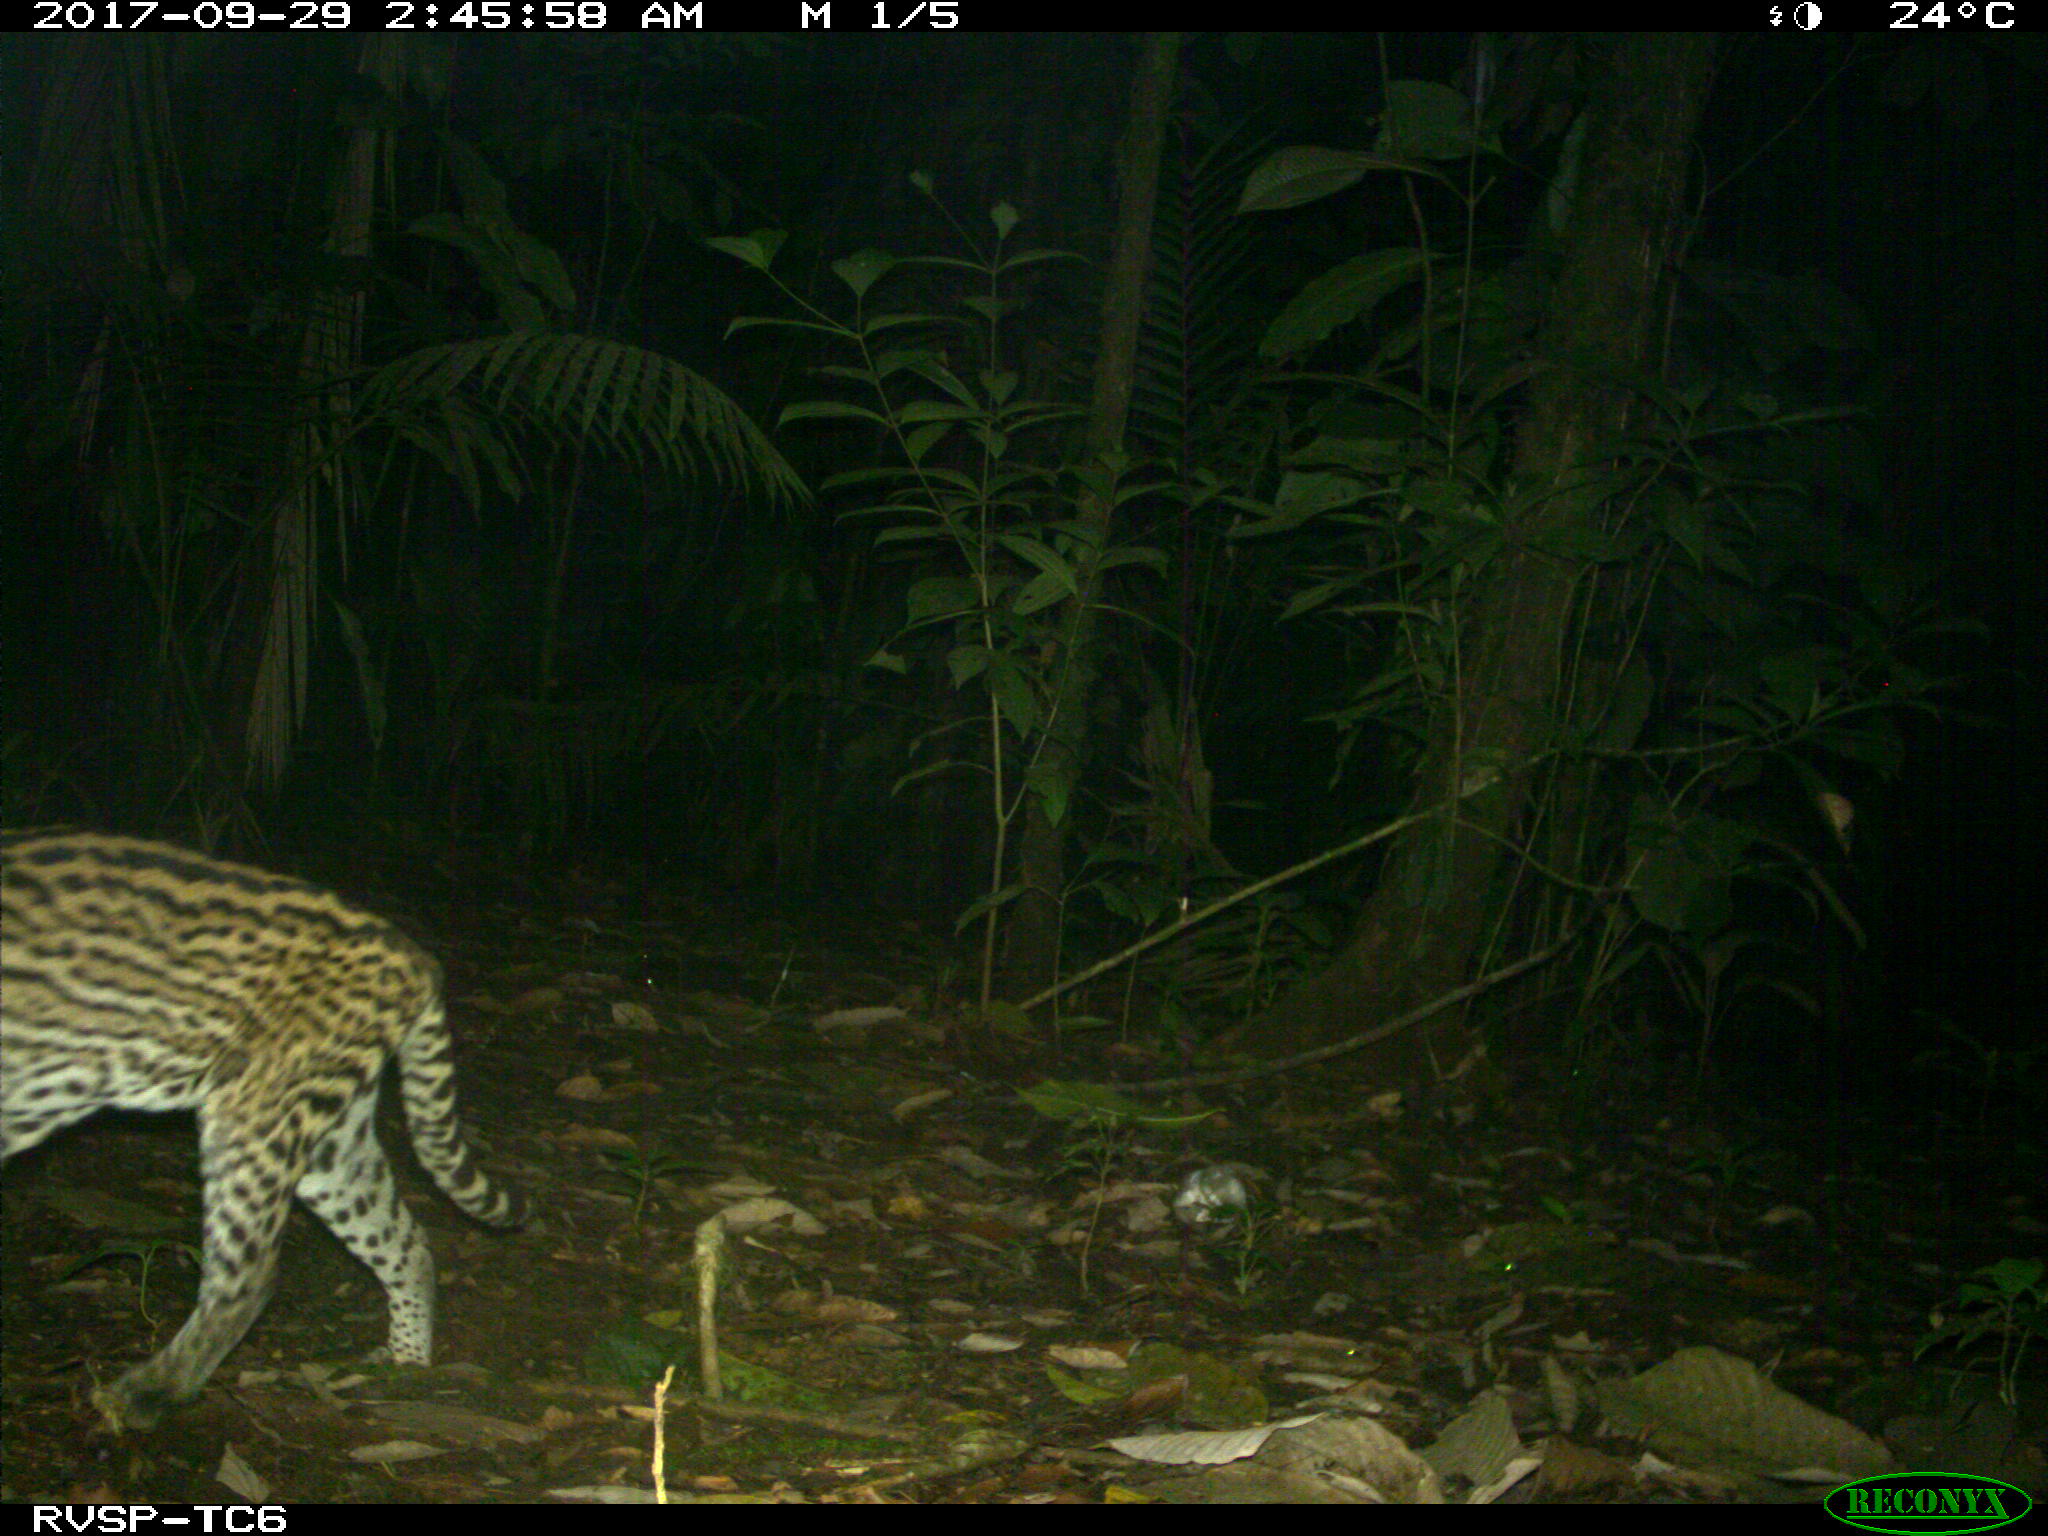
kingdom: Animalia
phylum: Chordata
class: Mammalia
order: Carnivora
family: Felidae
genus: Leopardus
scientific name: Leopardus pardalis
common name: Ocelot
